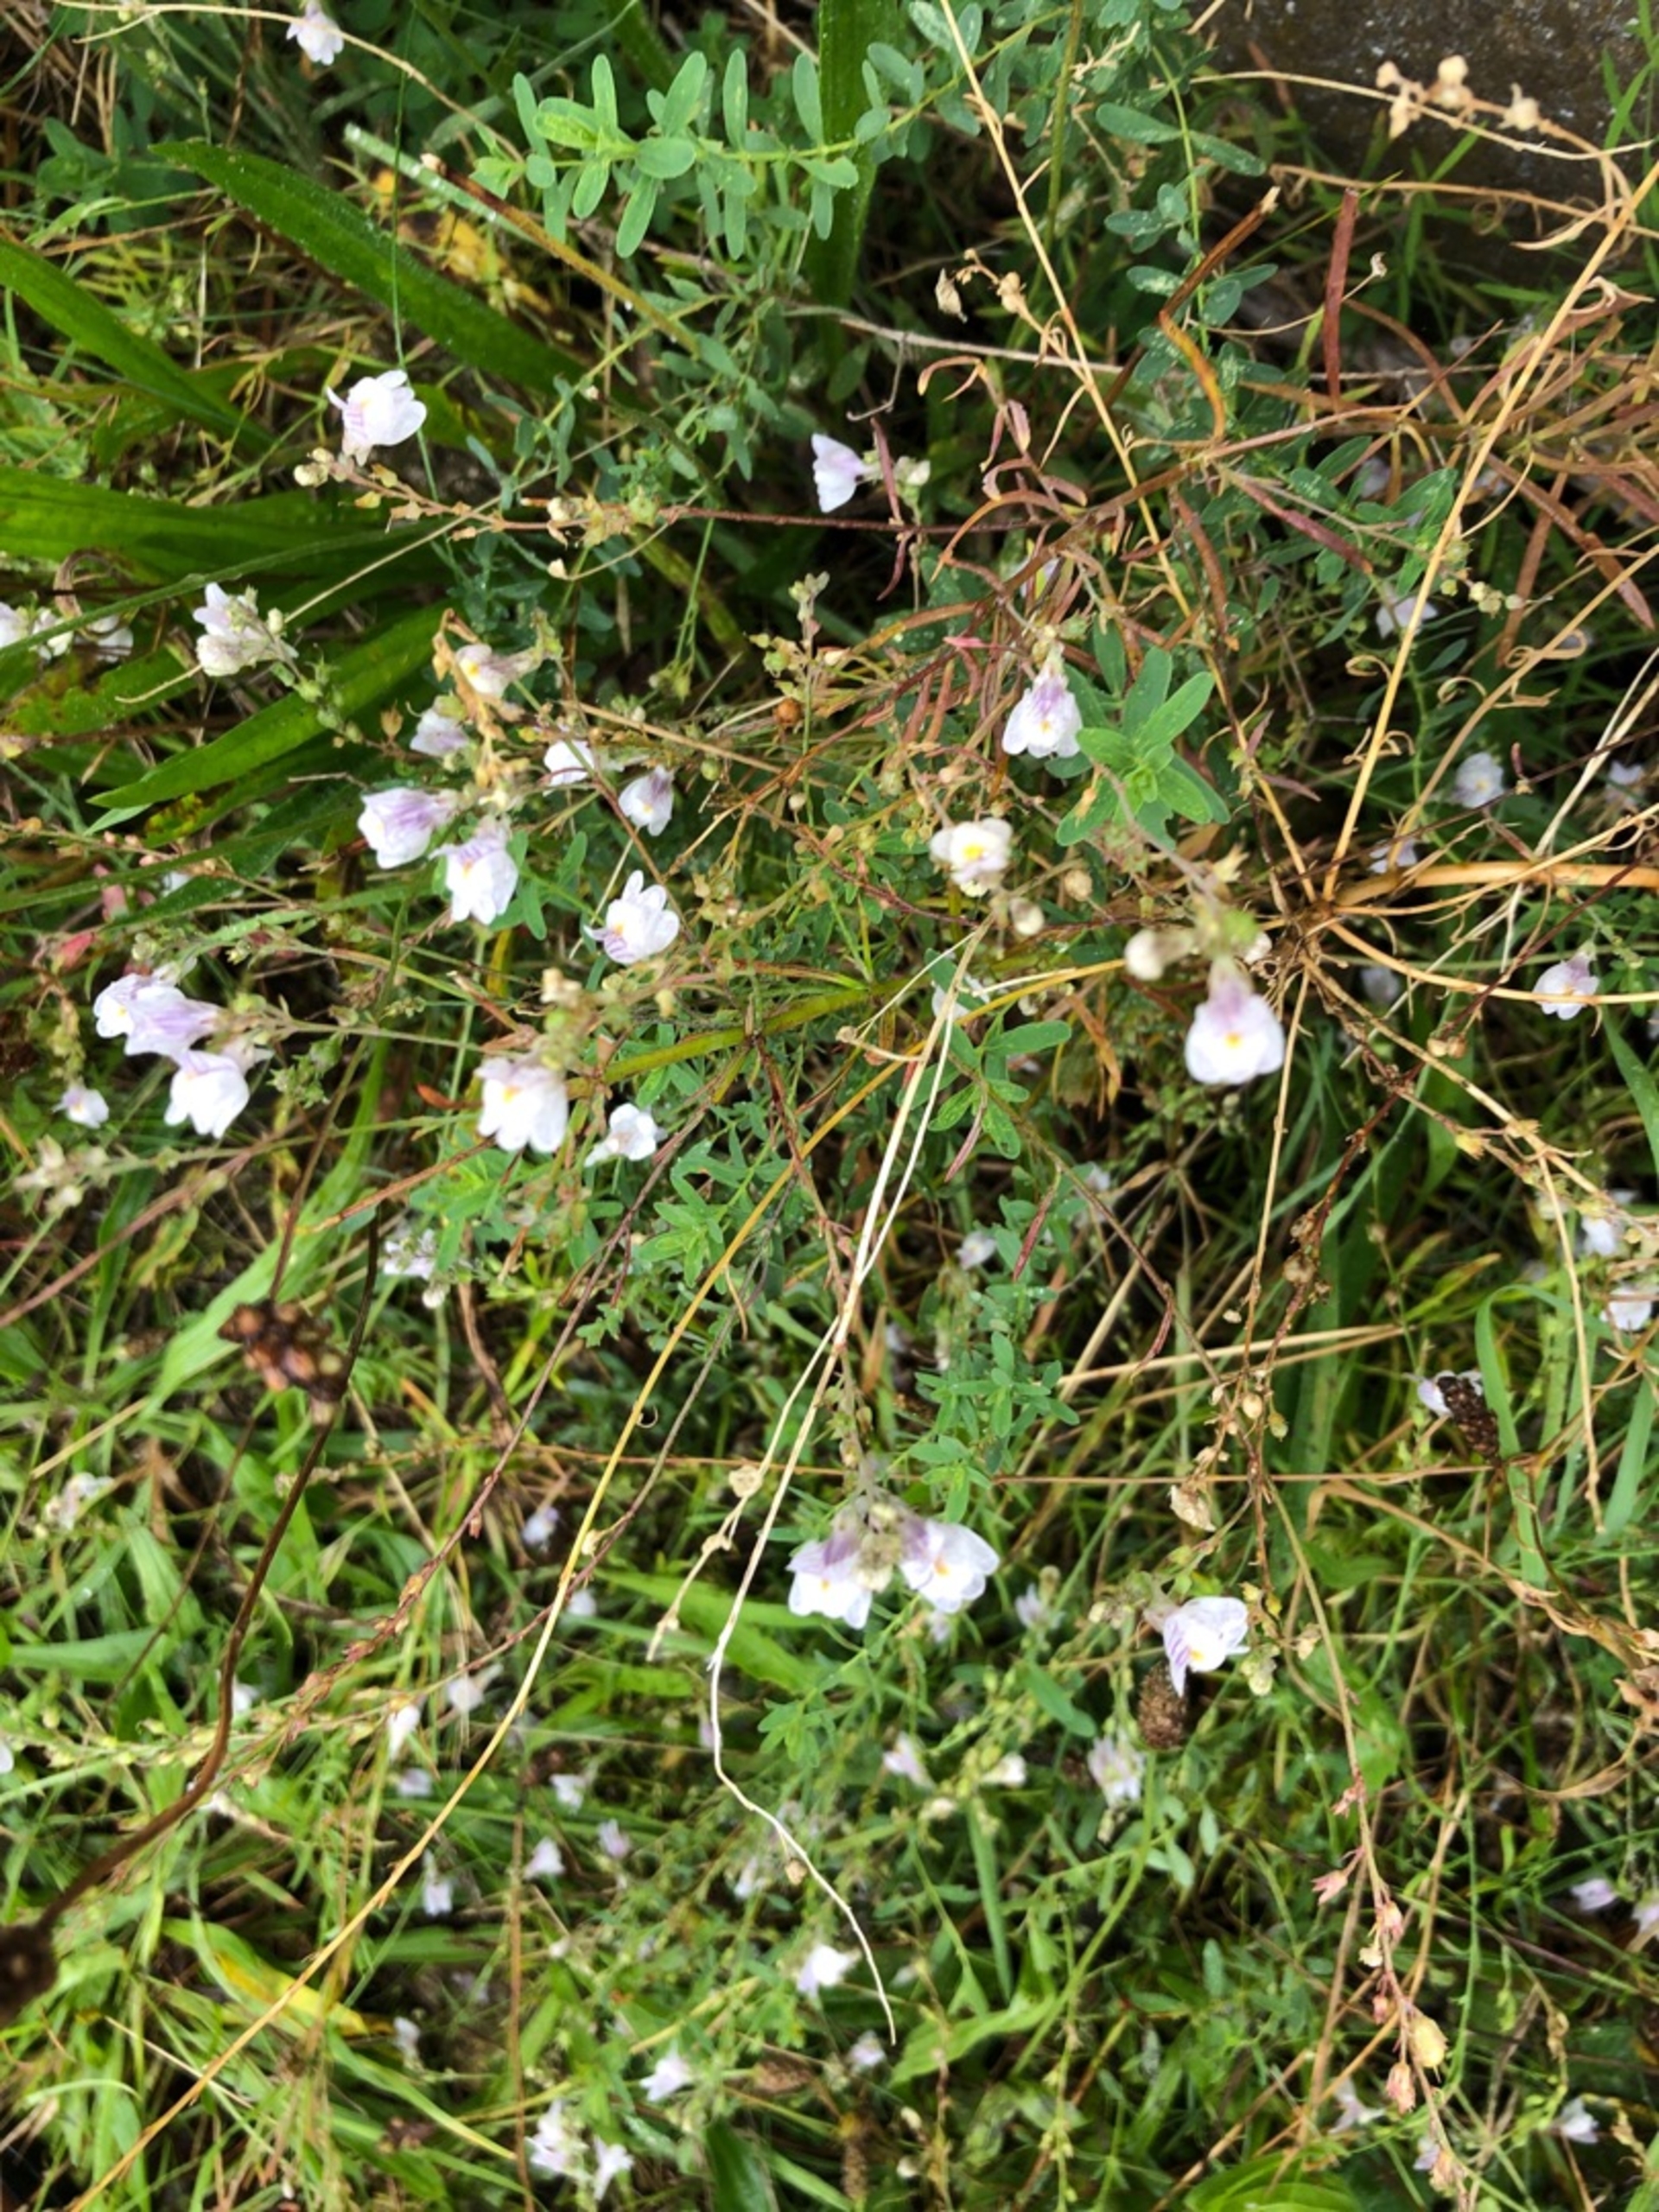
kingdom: Plantae
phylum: Tracheophyta
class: Magnoliopsida
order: Lamiales
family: Plantaginaceae
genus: Linaria
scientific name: Linaria repens
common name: Stribet torskemund
